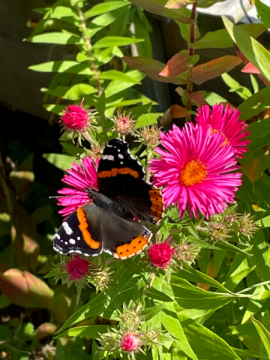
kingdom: Animalia
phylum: Arthropoda
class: Insecta
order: Lepidoptera
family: Nymphalidae
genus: Vanessa
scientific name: Vanessa atalanta
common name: Red Admiral
